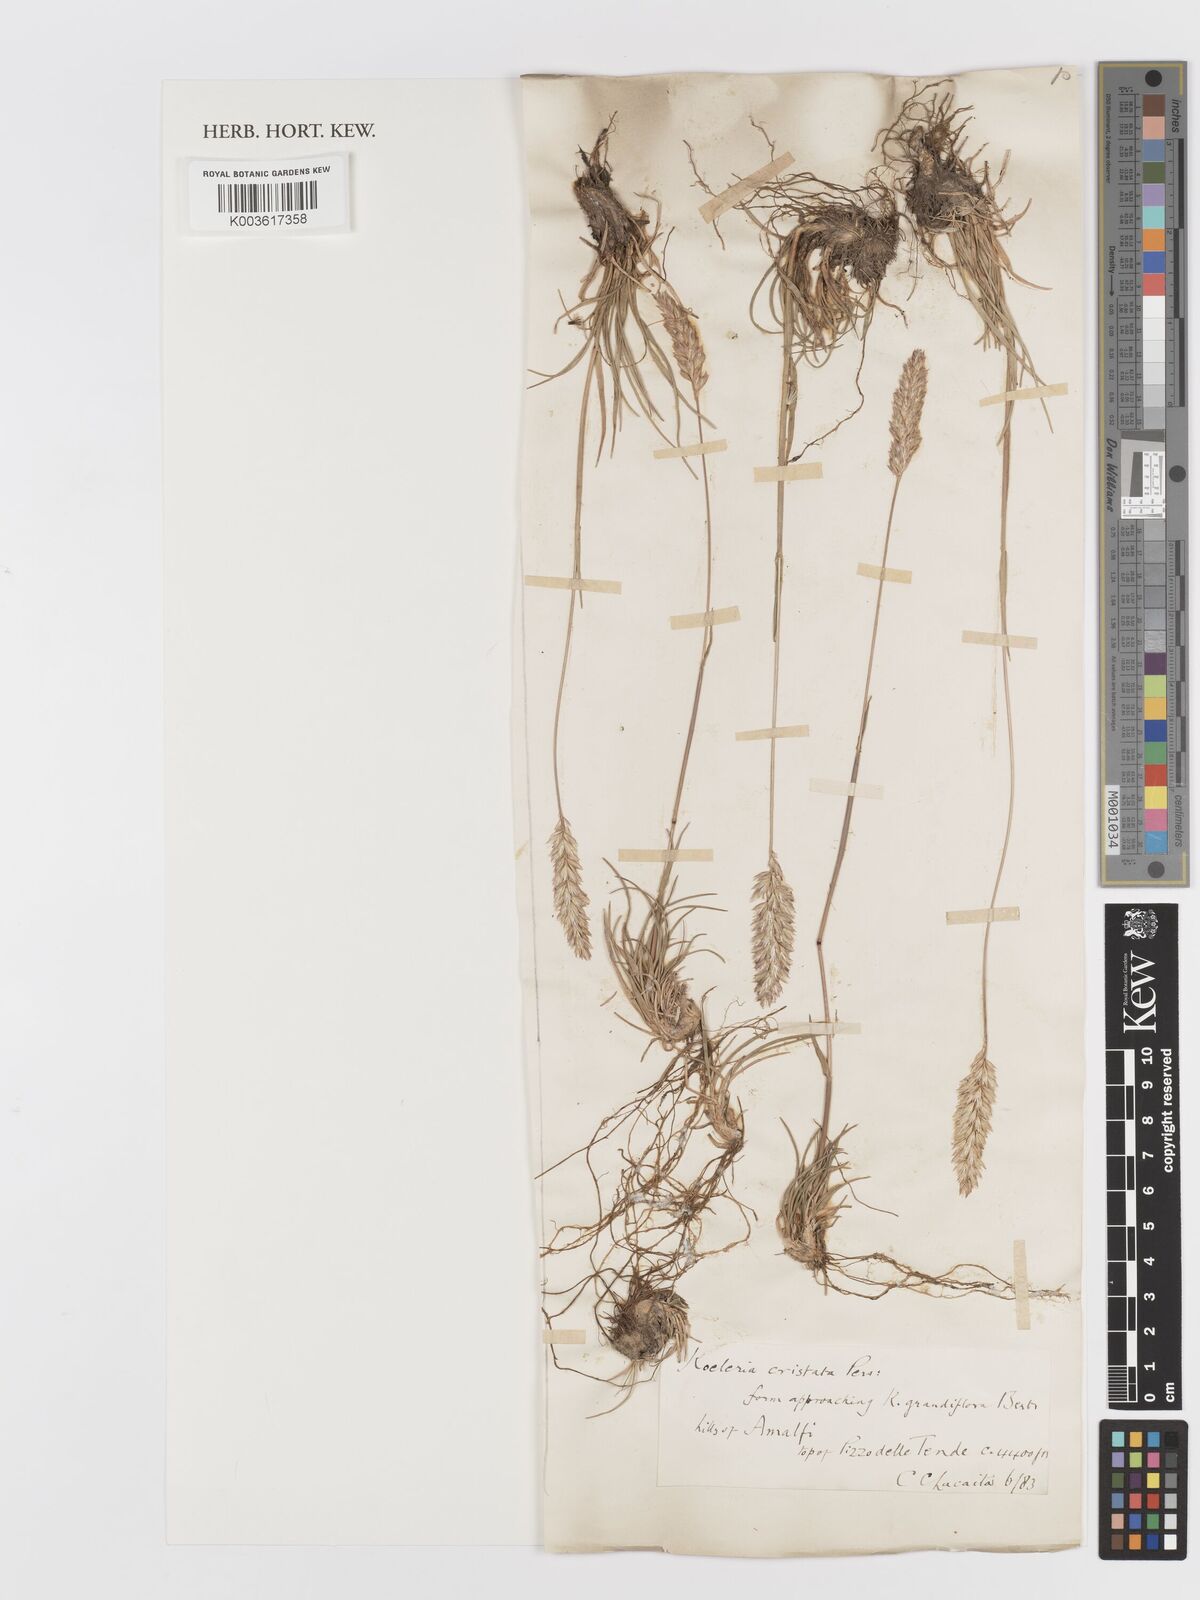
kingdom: Plantae
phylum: Tracheophyta
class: Liliopsida
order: Poales
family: Poaceae
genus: Koeleria
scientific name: Koeleria splendens
